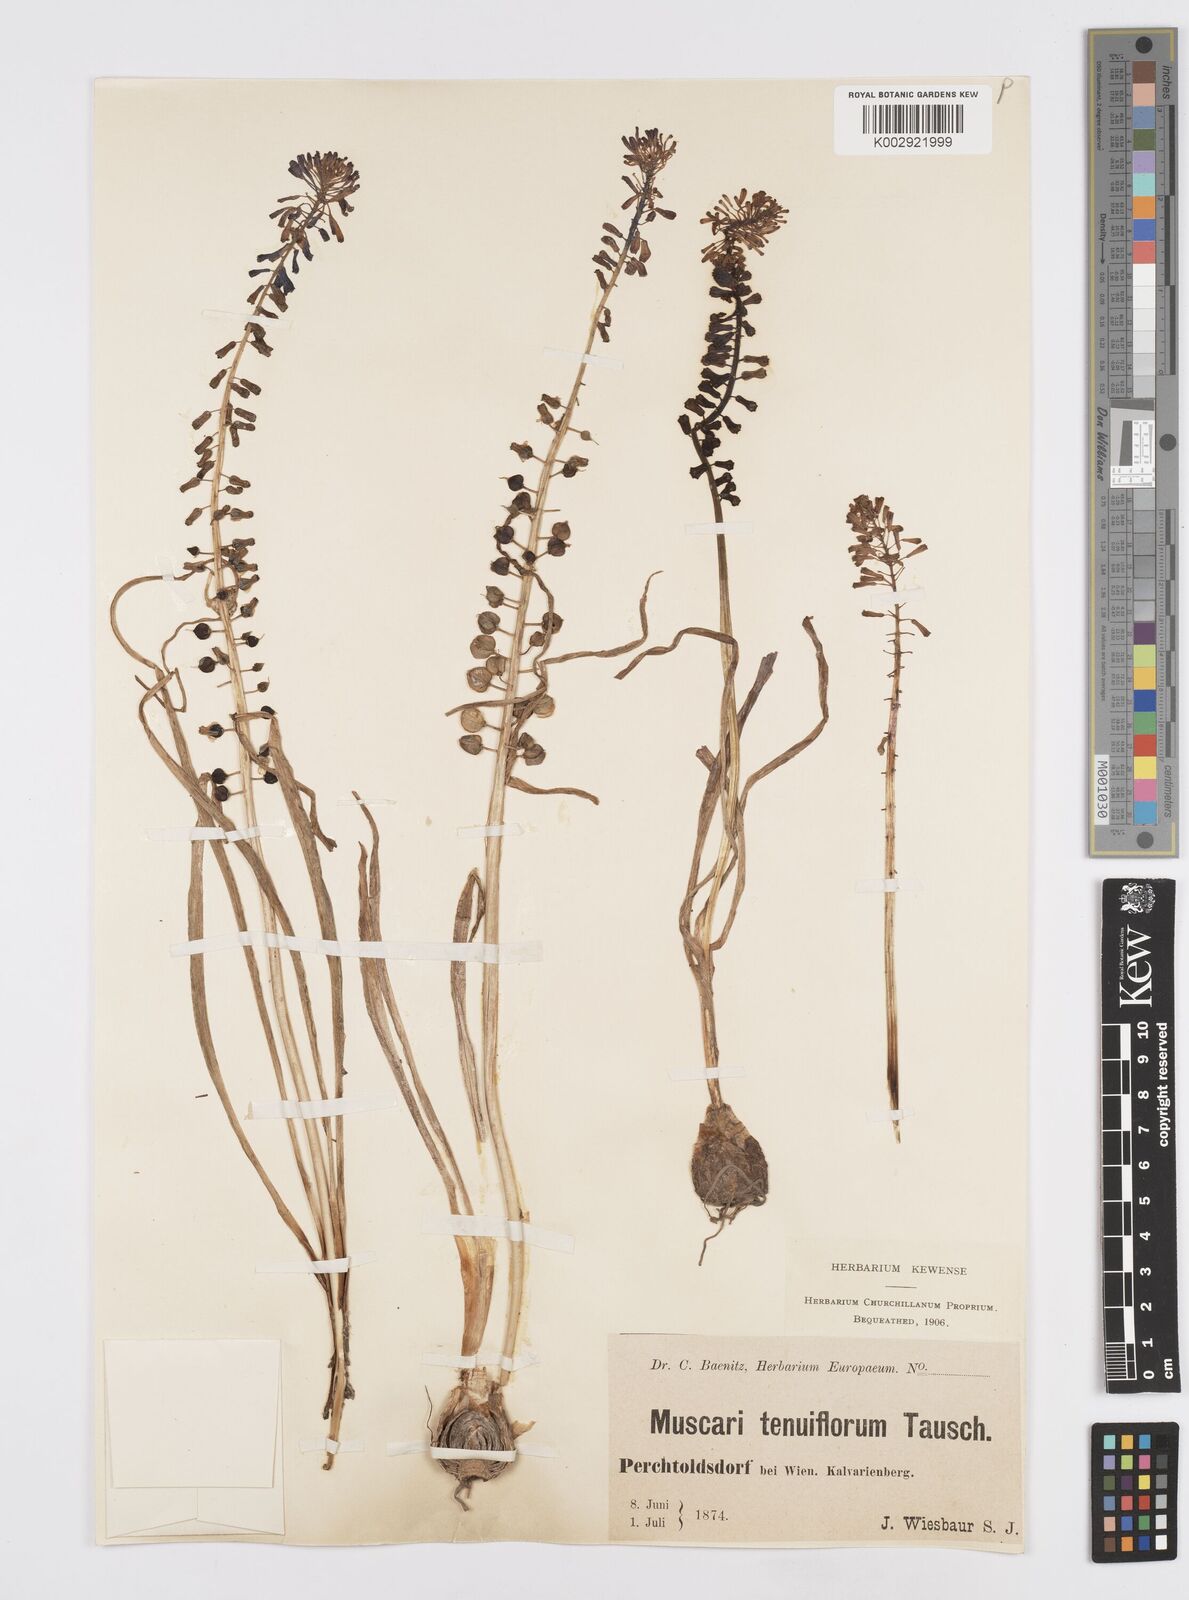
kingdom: Plantae
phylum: Tracheophyta
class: Liliopsida
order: Asparagales
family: Asparagaceae
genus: Muscari
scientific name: Muscari tenuiflorum
